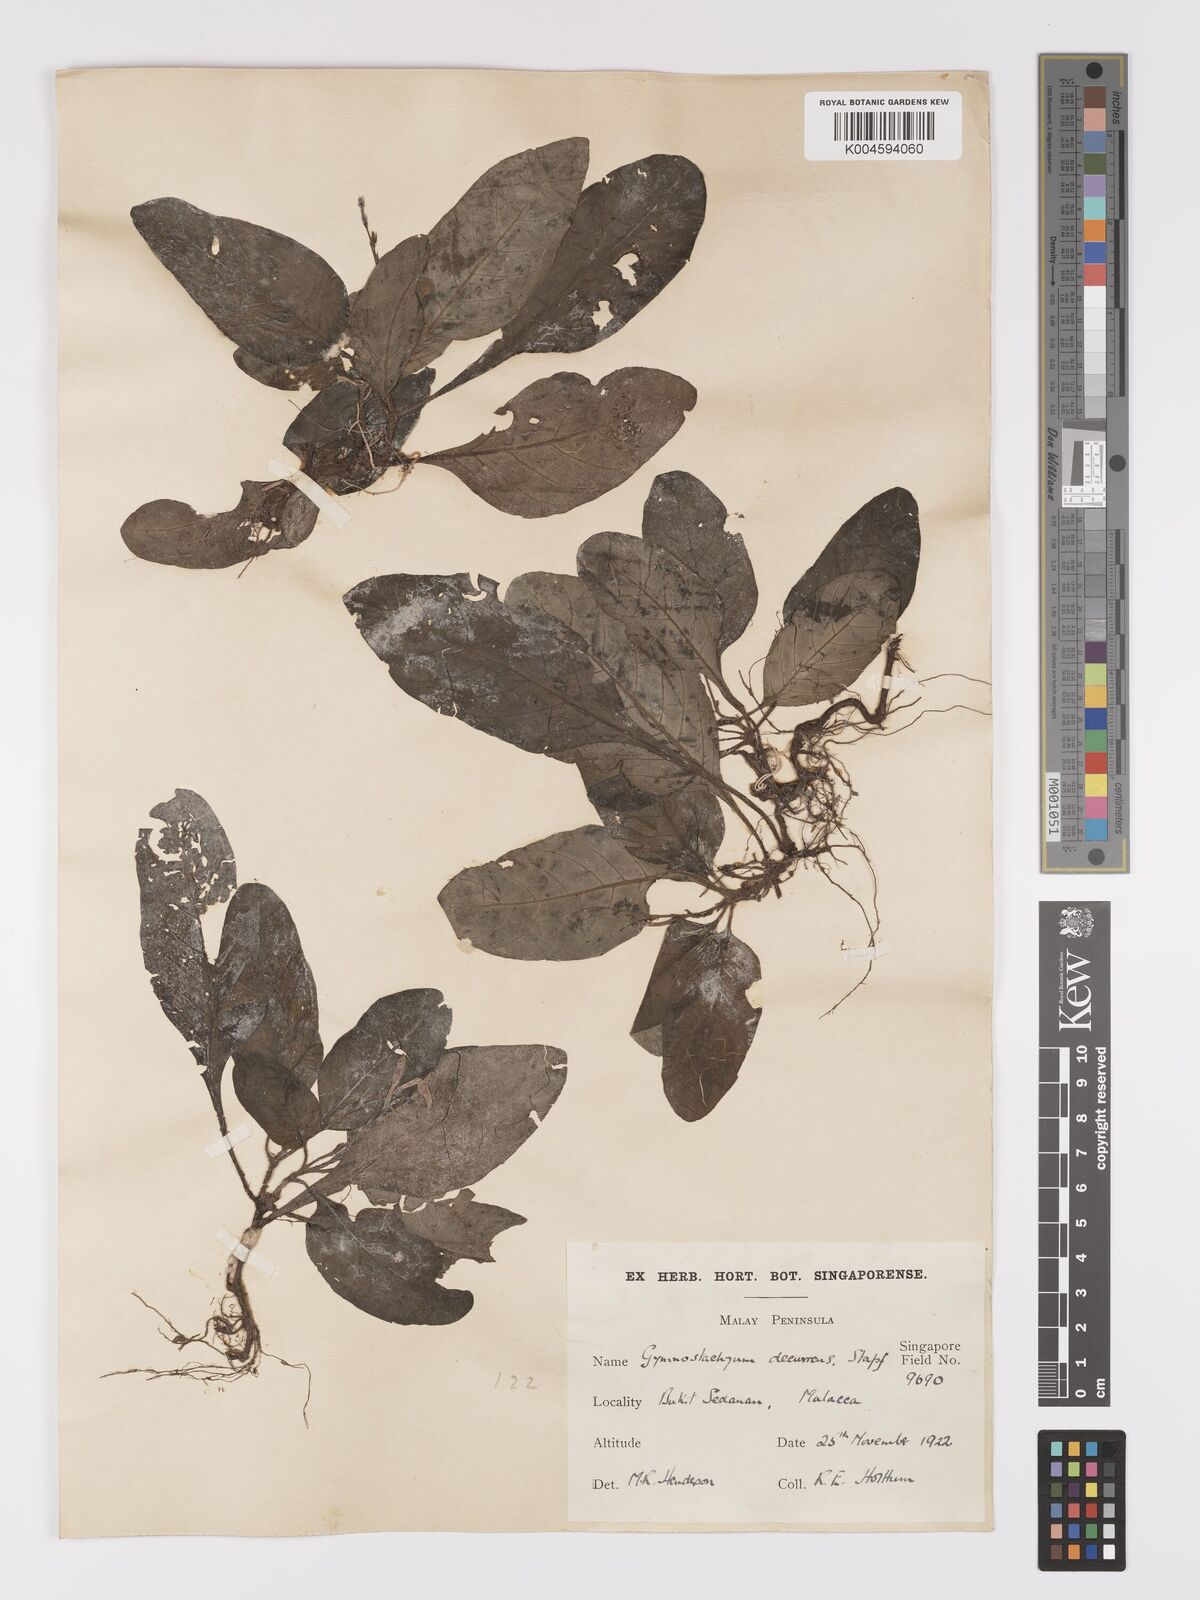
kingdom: Plantae
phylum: Tracheophyta
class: Magnoliopsida
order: Lamiales
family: Acanthaceae
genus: Gymnostachyum
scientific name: Gymnostachyum decurrens
